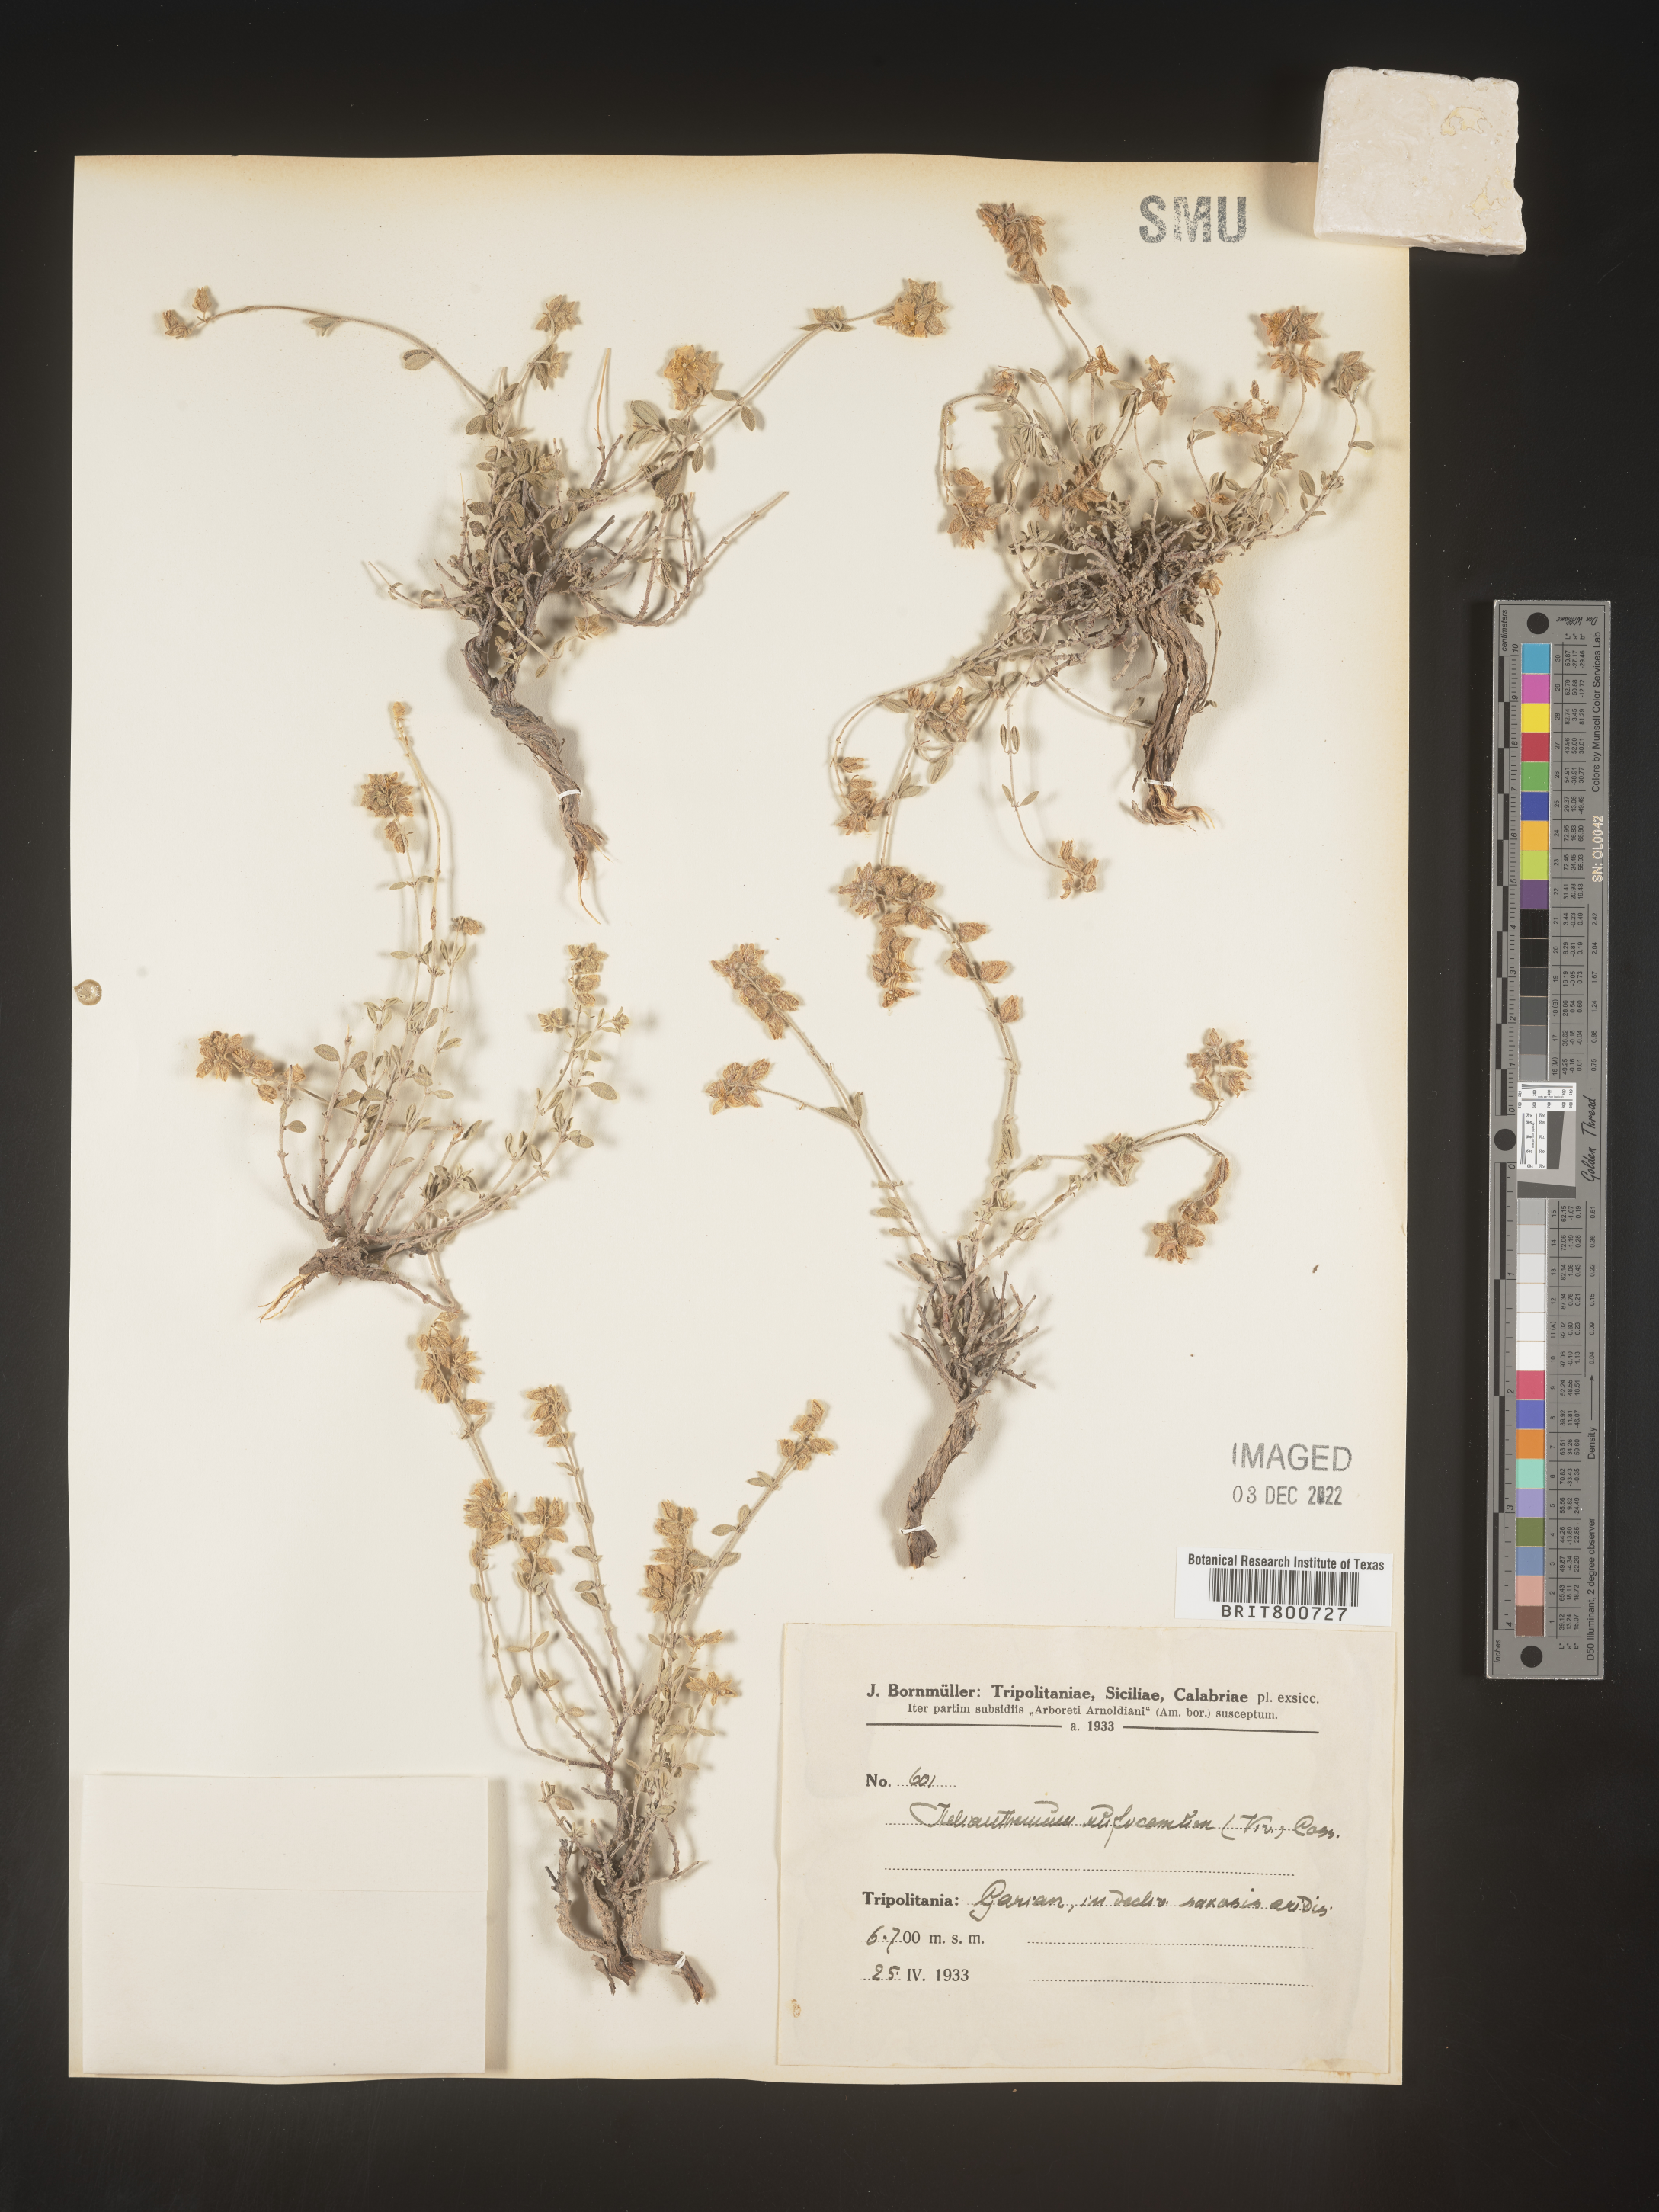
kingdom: Plantae
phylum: Tracheophyta
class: Magnoliopsida
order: Malvales
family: Cistaceae
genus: Helianthemum
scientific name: Helianthemum
